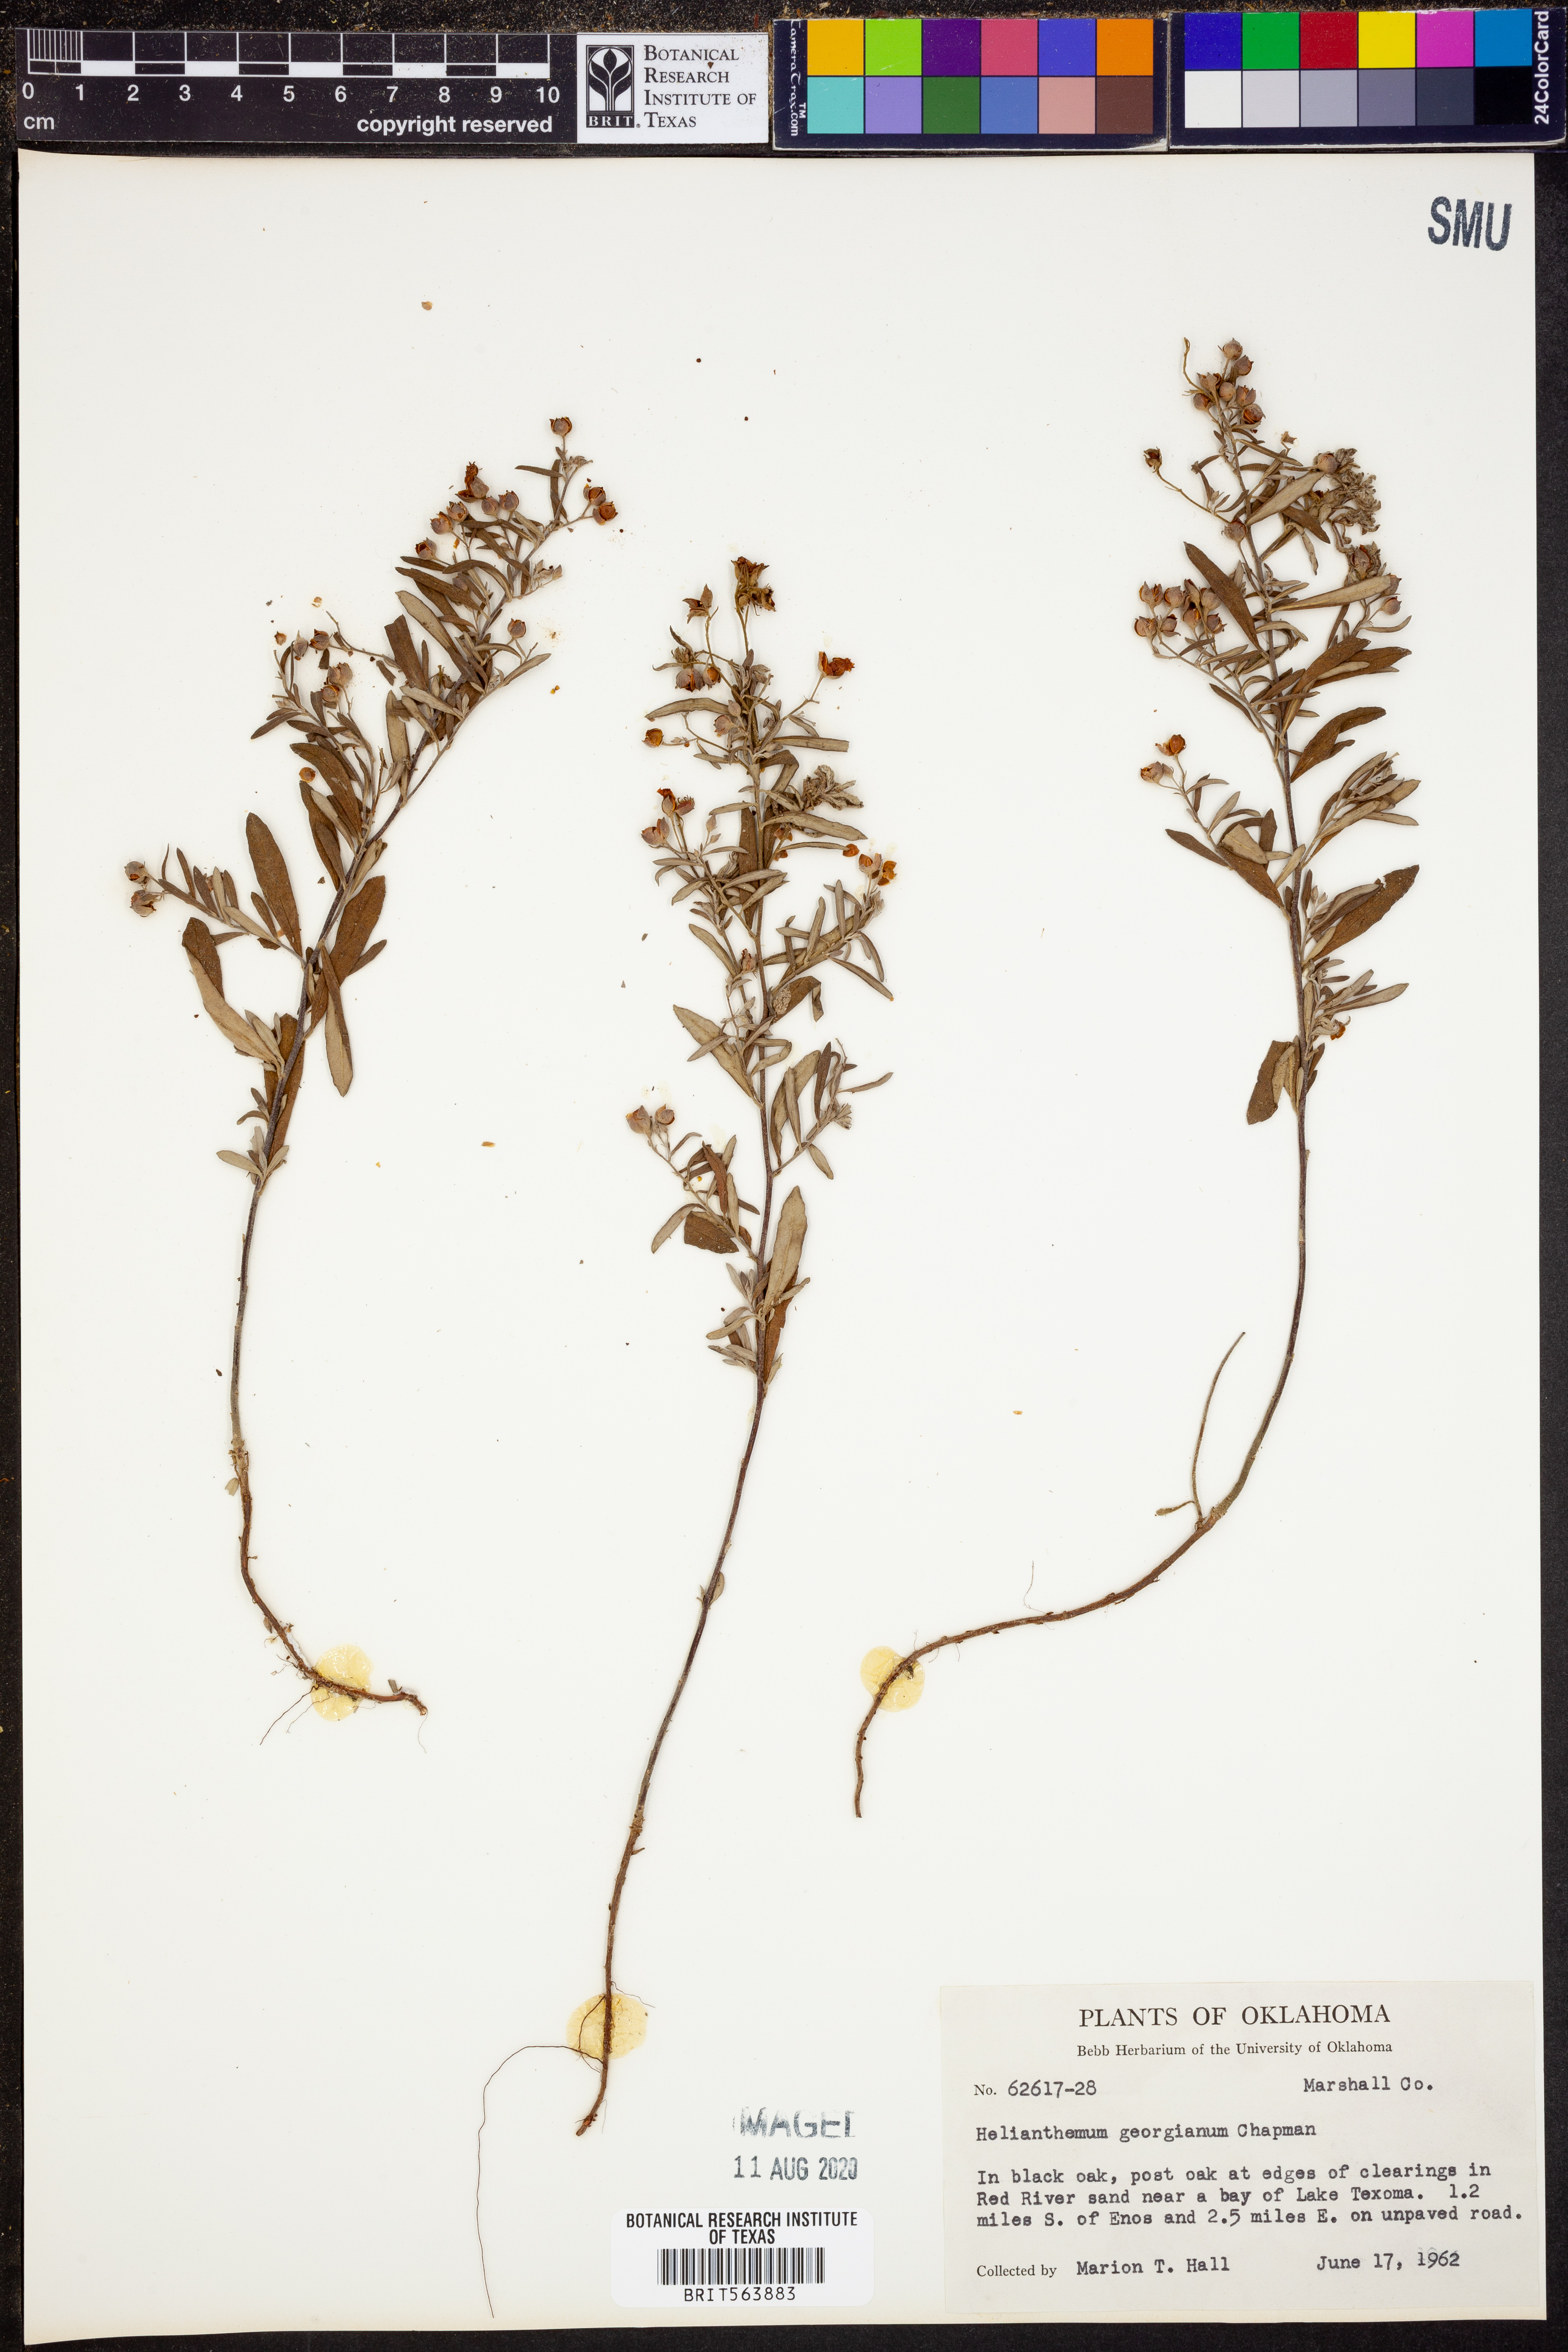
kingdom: Plantae
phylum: Tracheophyta
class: Magnoliopsida
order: Malvales
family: Cistaceae
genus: Crocanthemum
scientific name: Crocanthemum georgianum
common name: Georgia frostweed
